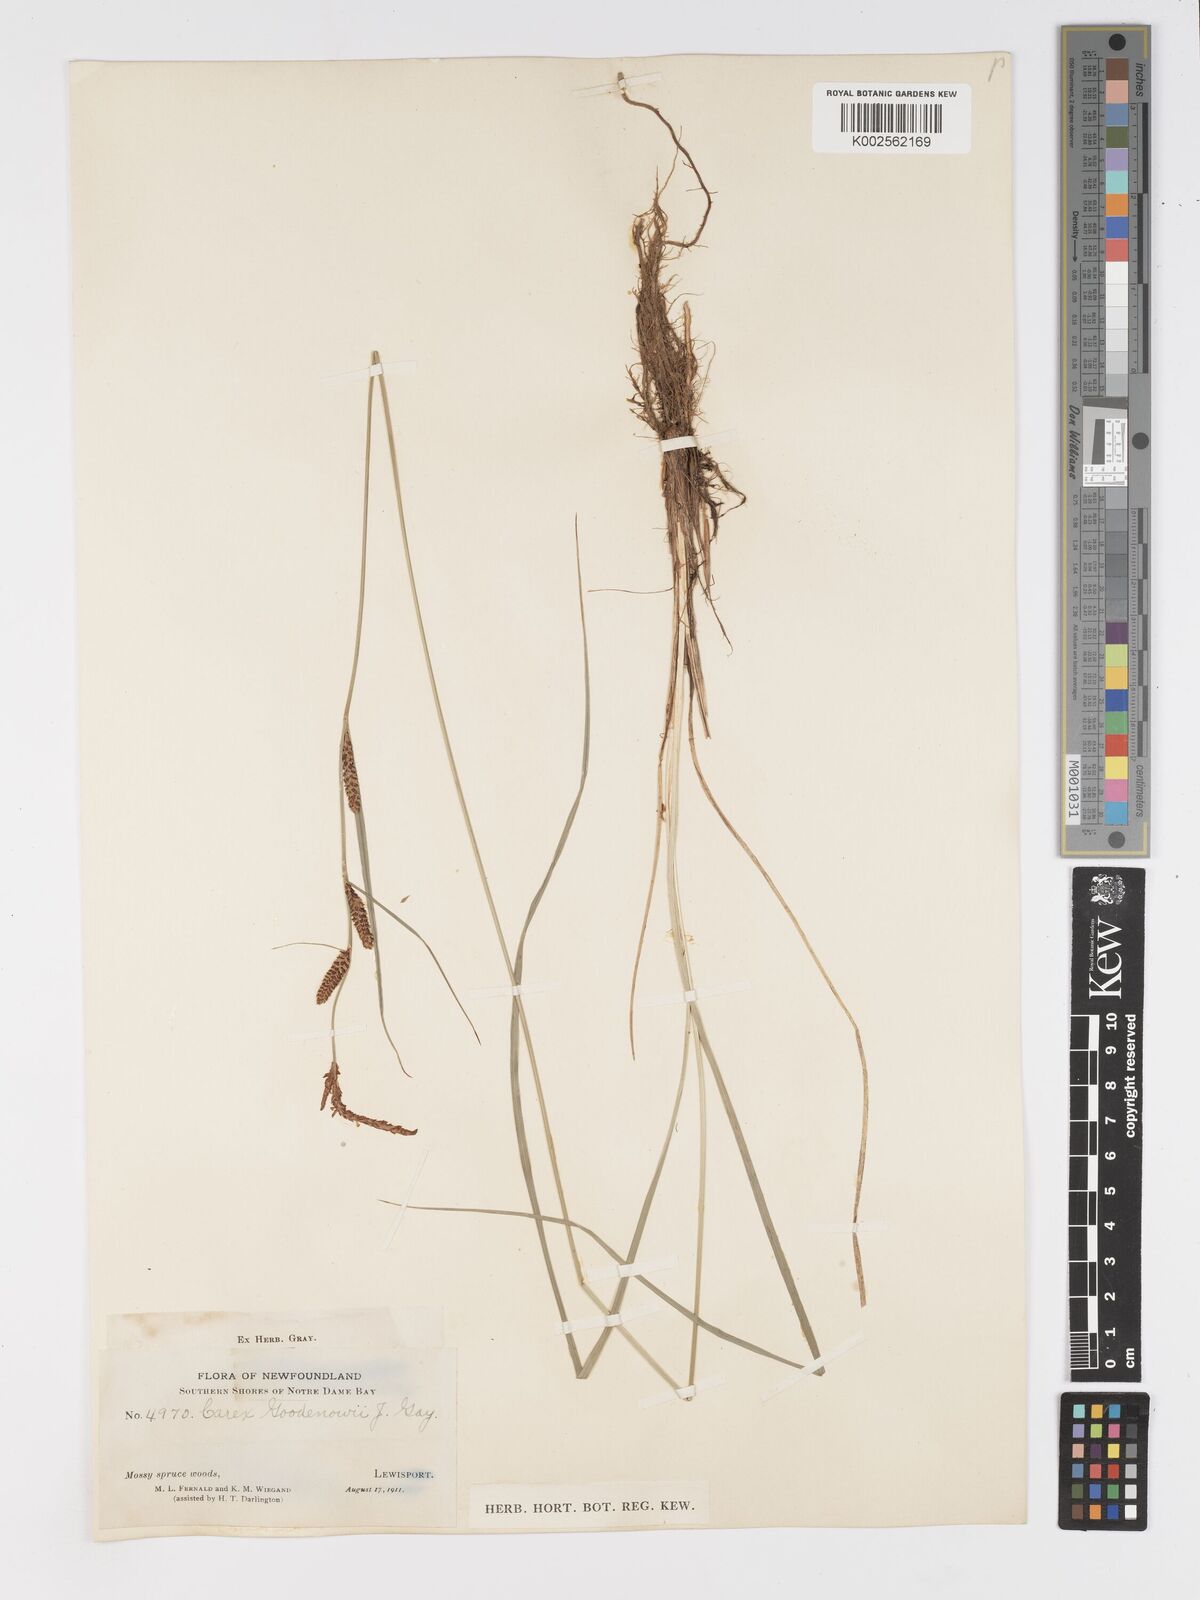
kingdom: Plantae
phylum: Tracheophyta
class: Liliopsida
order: Poales
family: Cyperaceae
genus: Carex
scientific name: Carex nigra
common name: Common sedge
